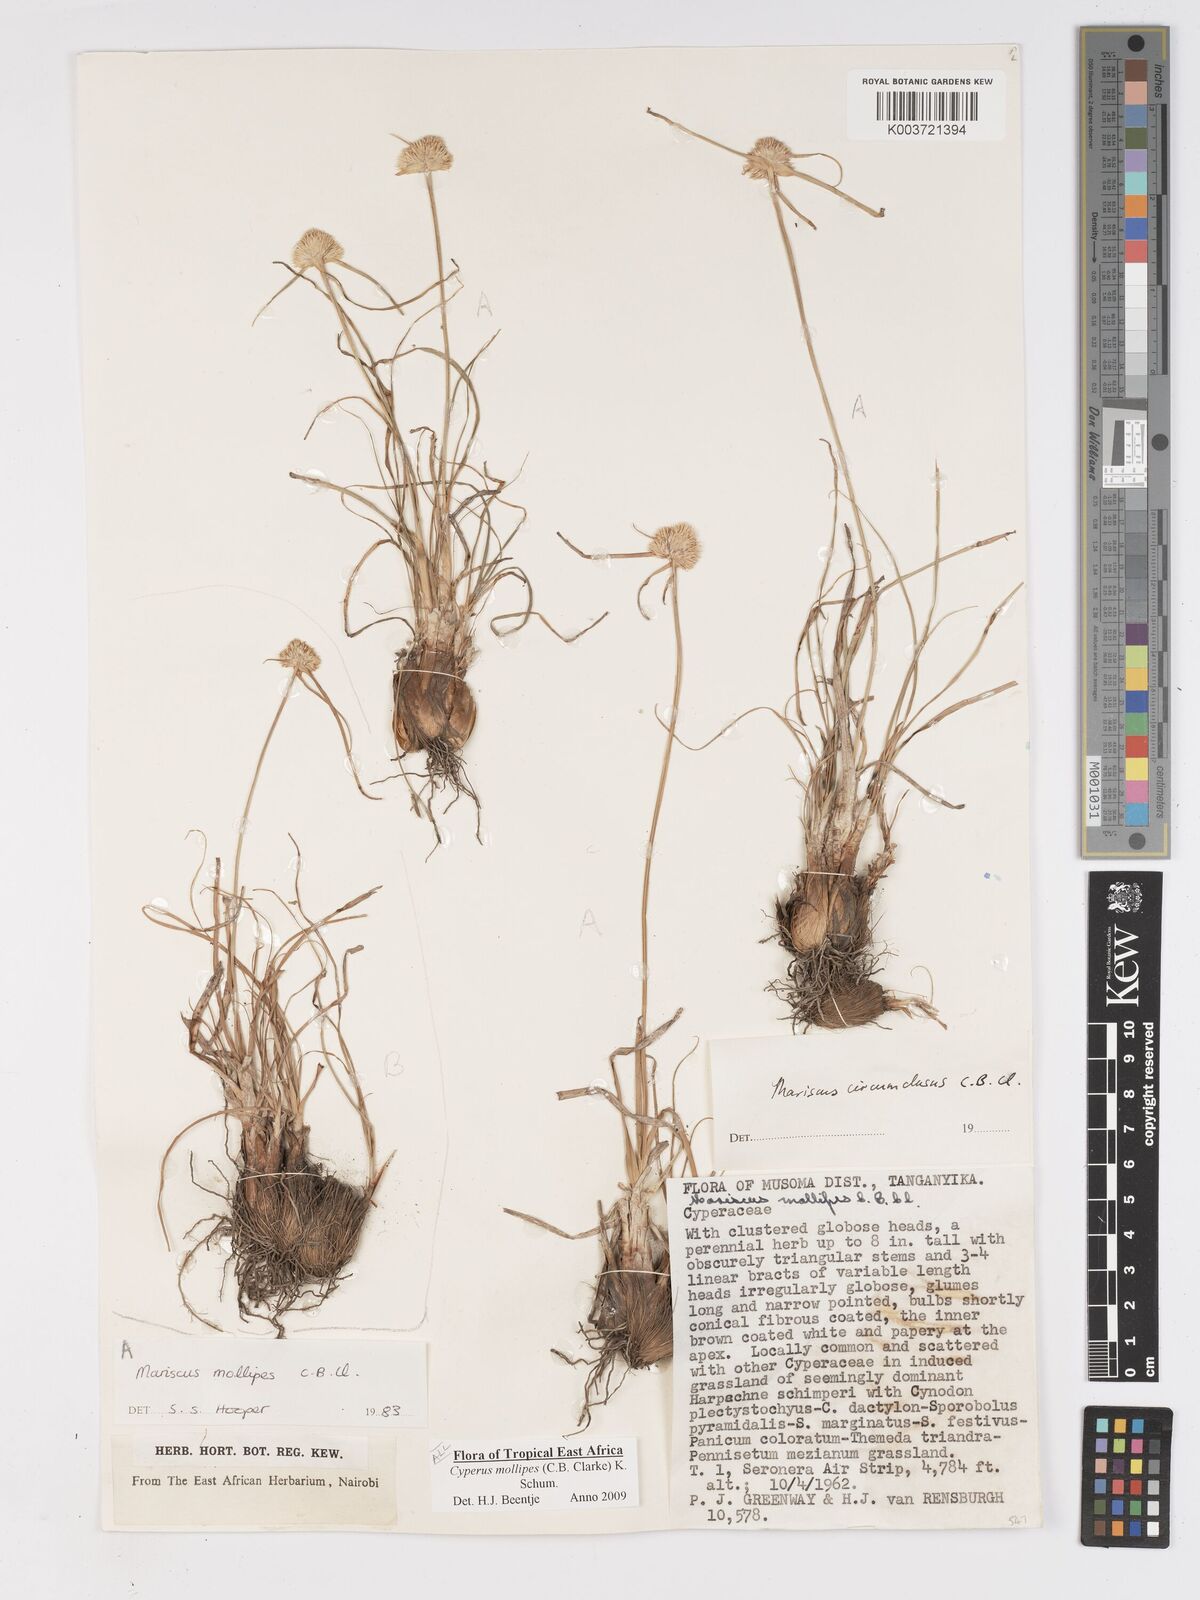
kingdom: Plantae
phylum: Tracheophyta
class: Liliopsida
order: Poales
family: Cyperaceae
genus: Cyperus
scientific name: Cyperus mollipes
